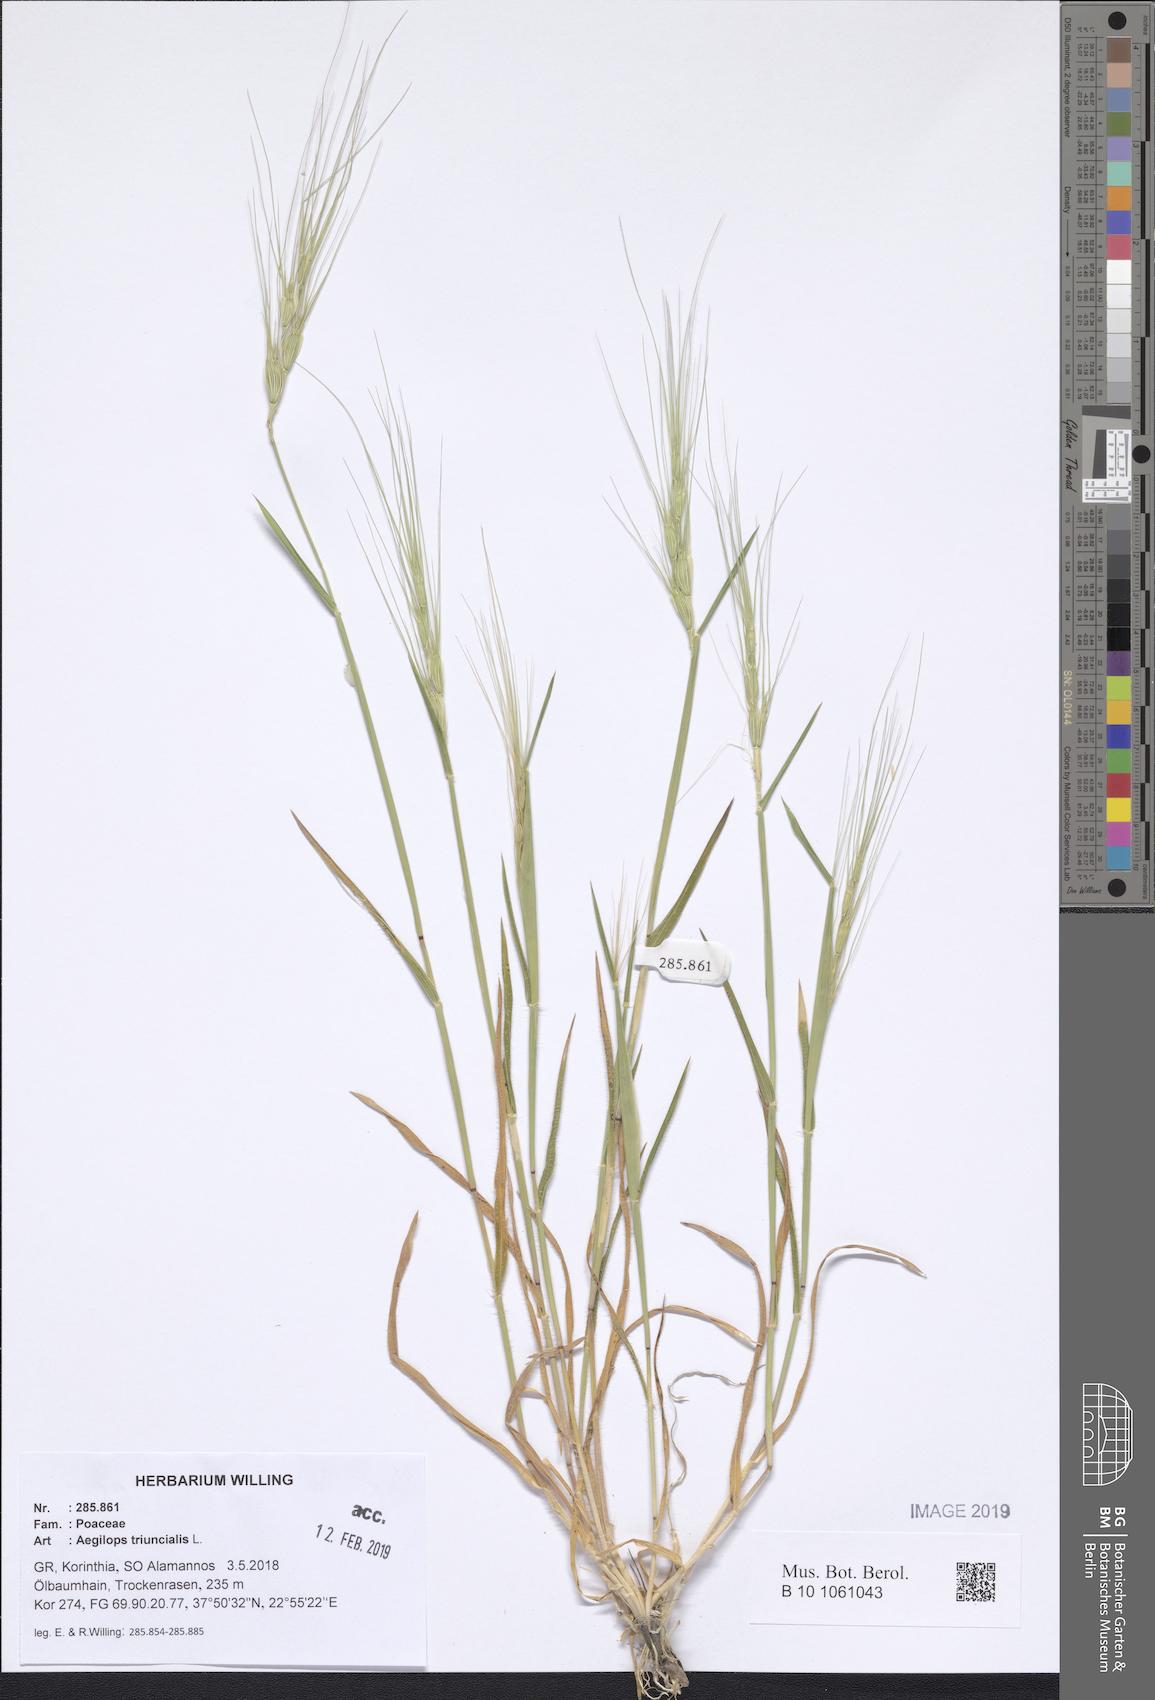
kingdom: Plantae
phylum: Tracheophyta
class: Liliopsida
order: Poales
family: Poaceae
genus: Aegilops
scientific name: Aegilops triuncialis
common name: Barb goat grass
